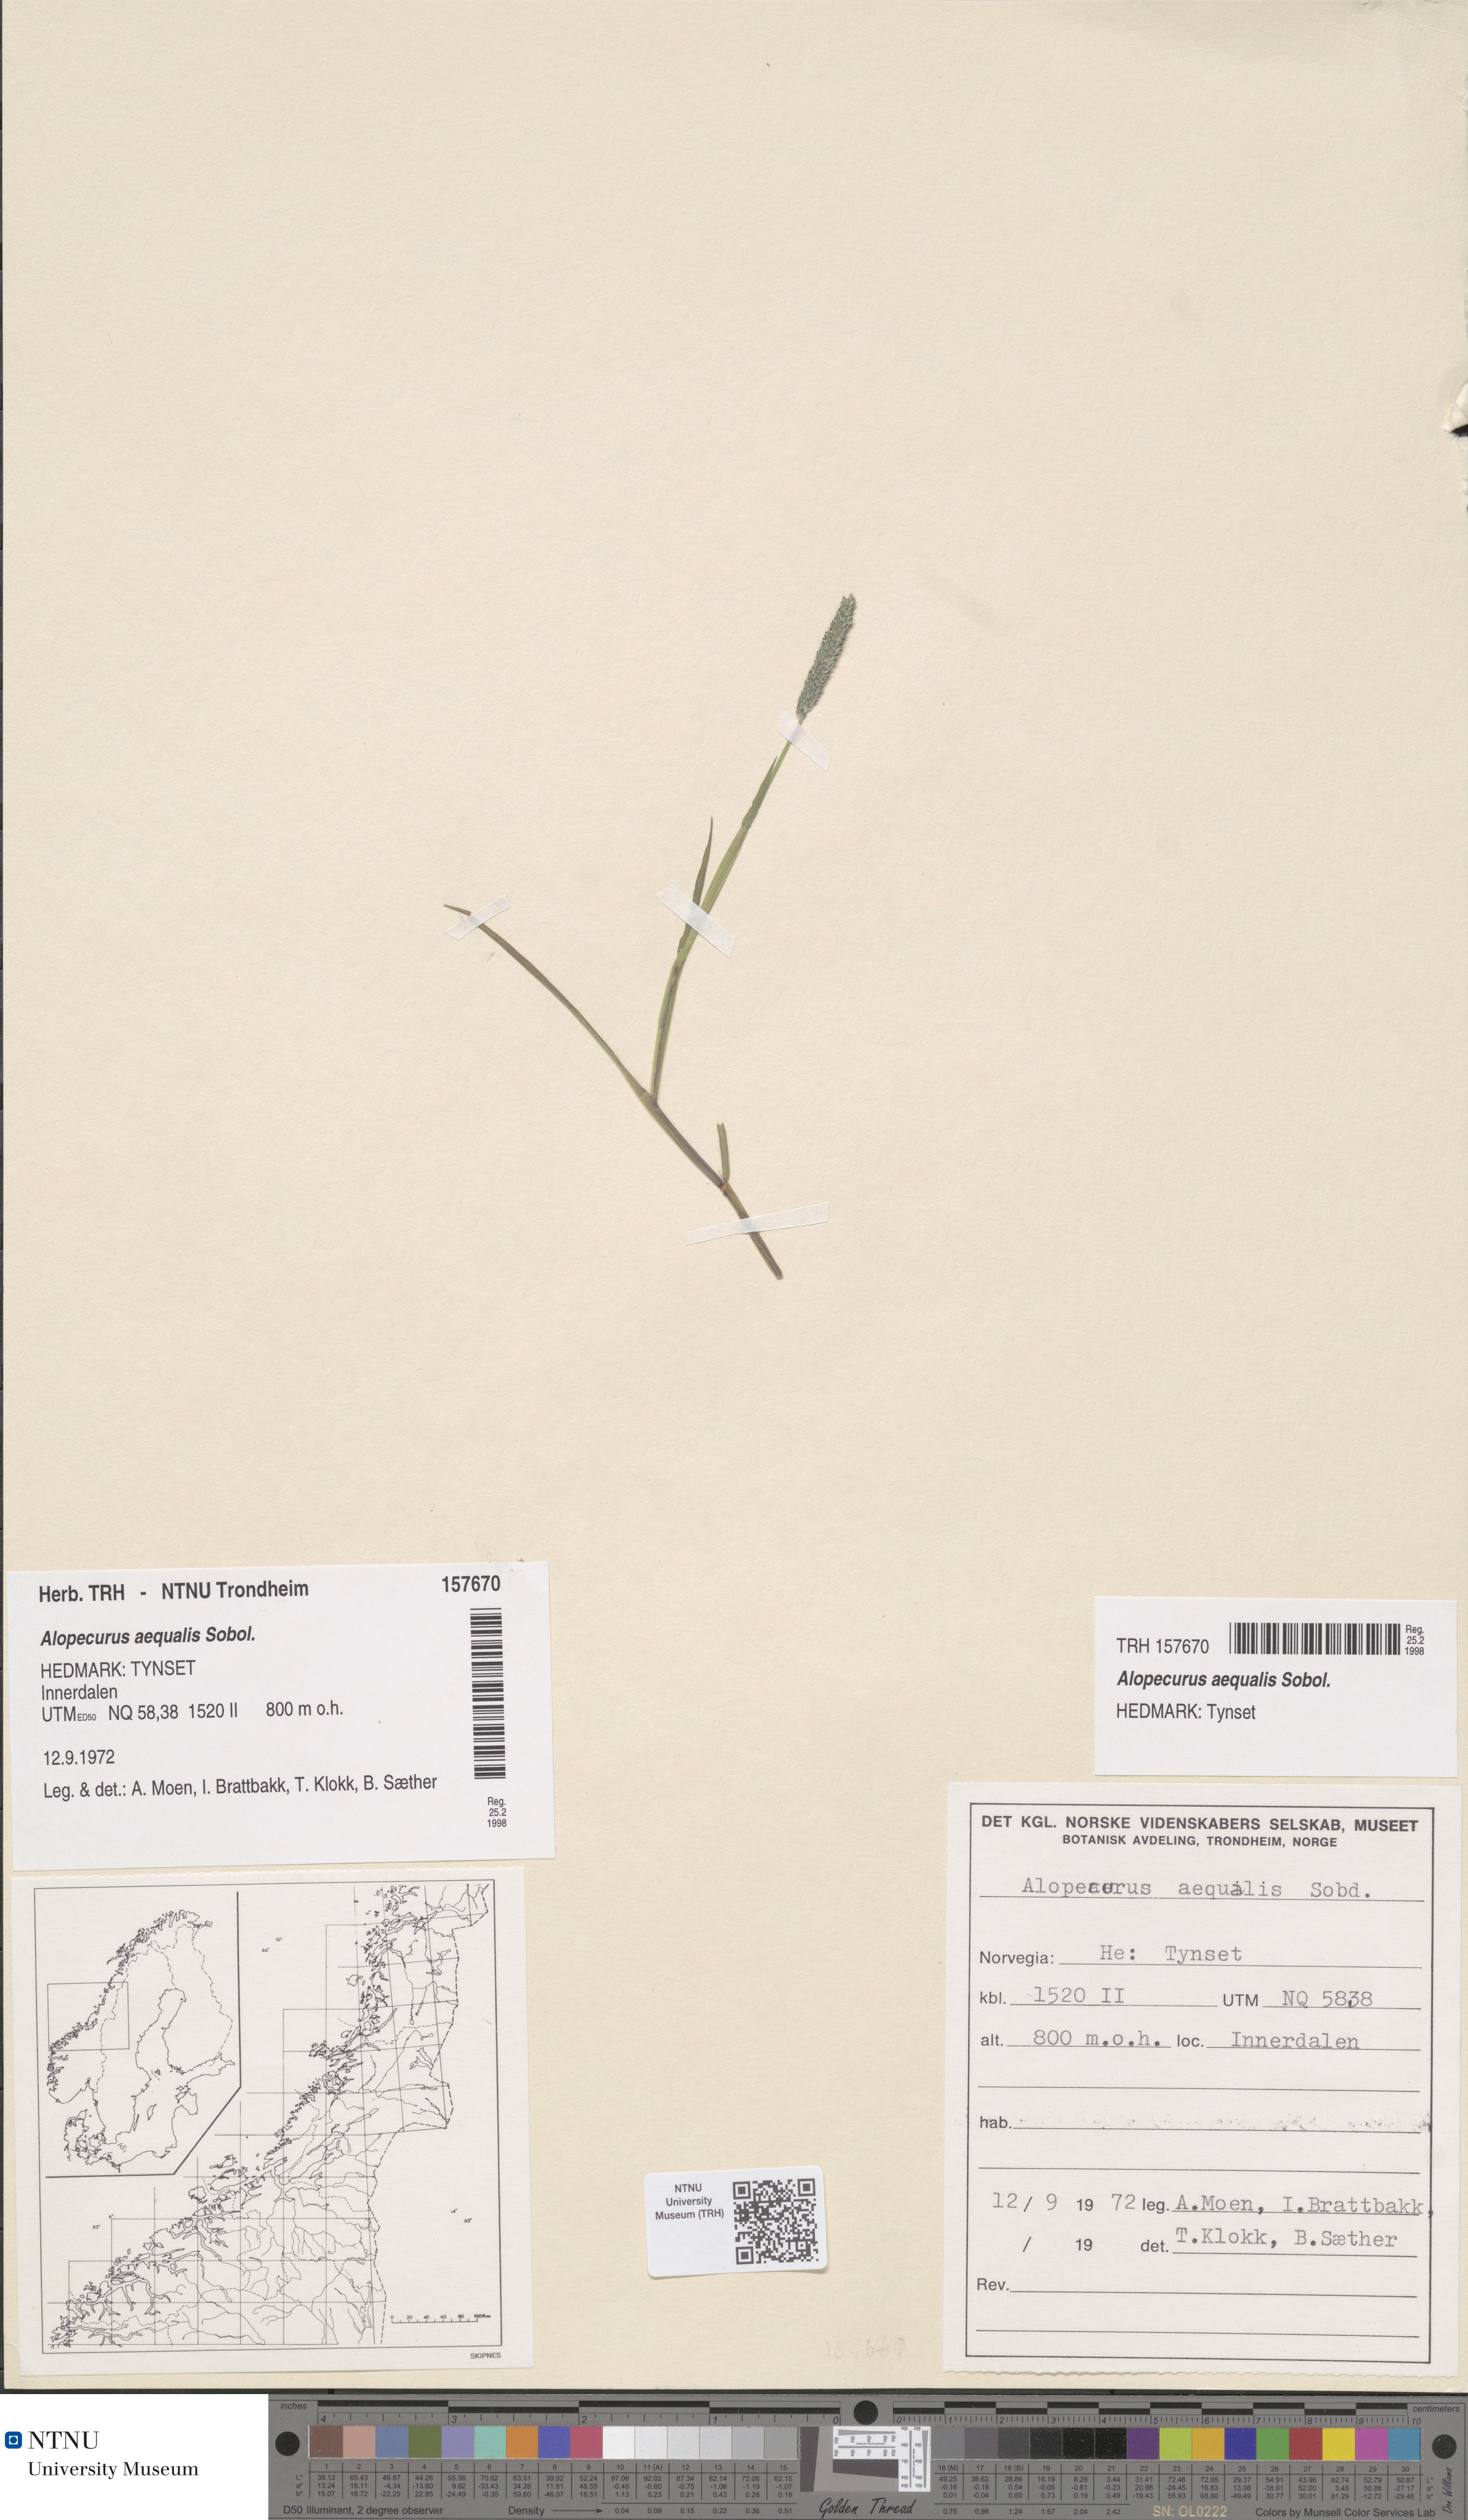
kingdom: Plantae
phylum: Tracheophyta
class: Liliopsida
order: Poales
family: Poaceae
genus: Alopecurus
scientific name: Alopecurus aequalis
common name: Orange foxtail
